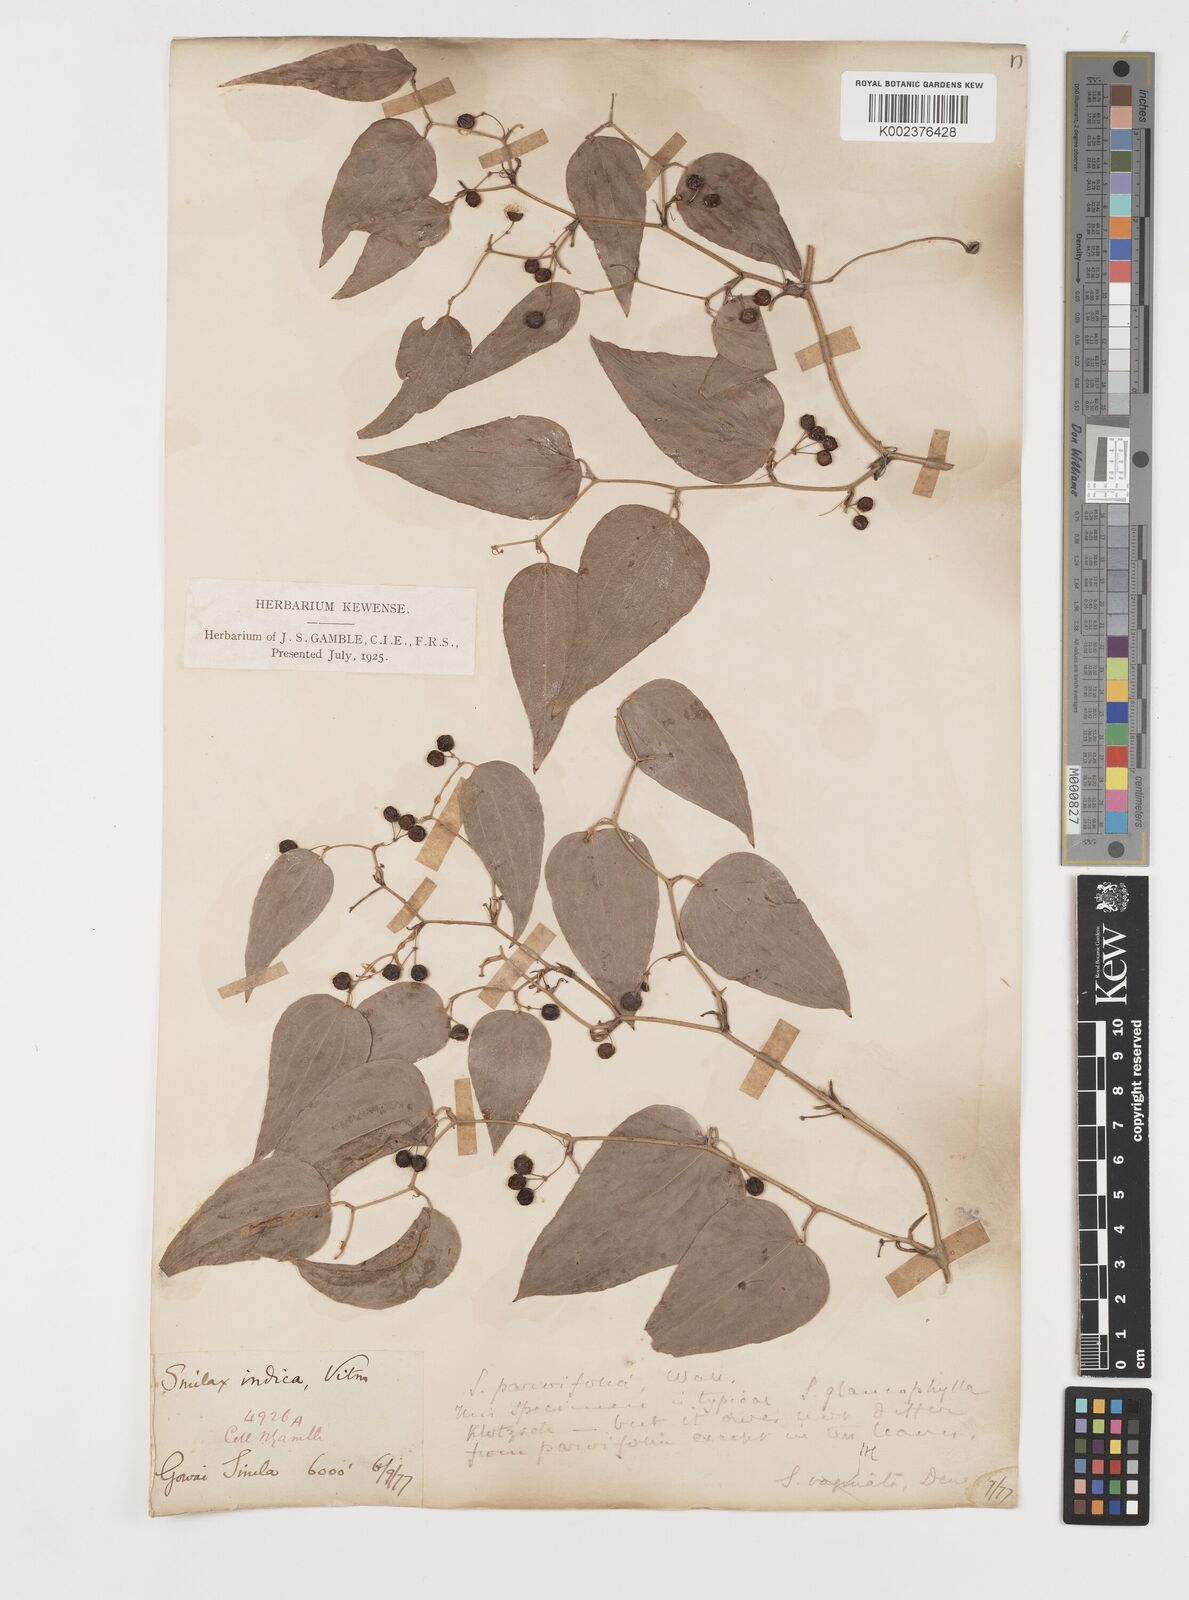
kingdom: Plantae
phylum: Tracheophyta
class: Liliopsida
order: Liliales
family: Smilacaceae
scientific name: Smilacaceae
